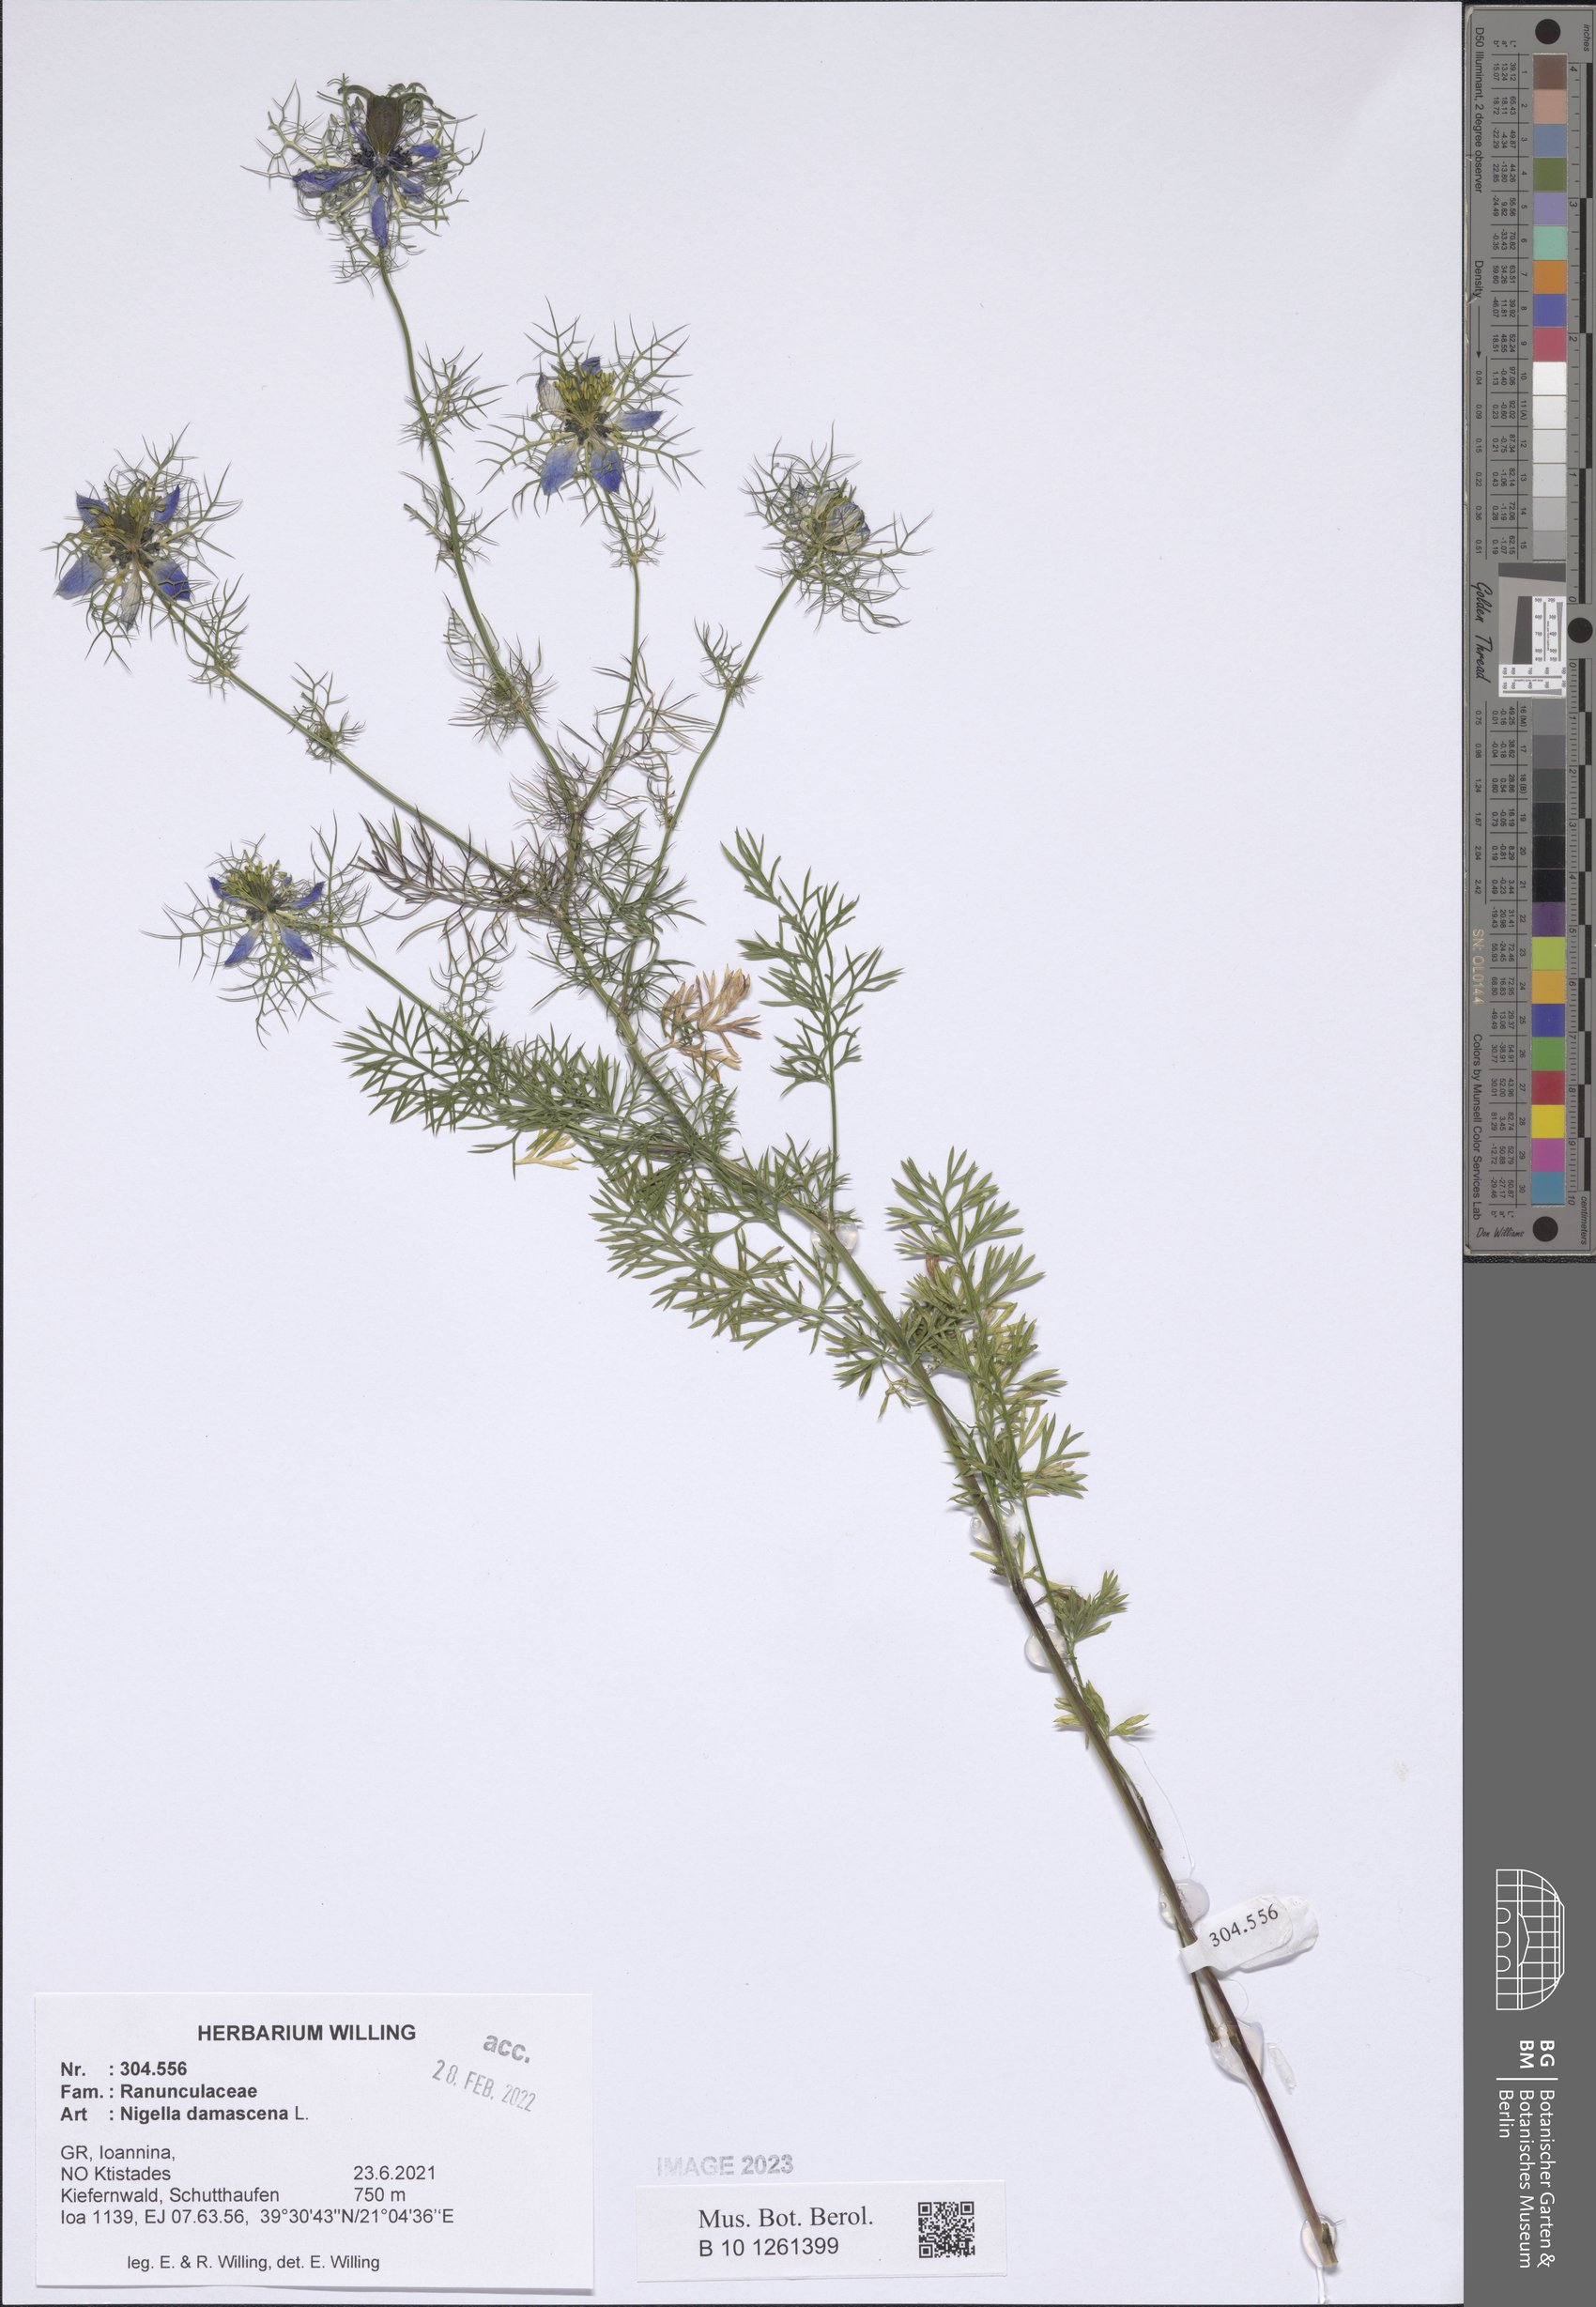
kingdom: Plantae
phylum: Tracheophyta
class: Magnoliopsida
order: Ranunculales
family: Ranunculaceae
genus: Nigella
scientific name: Nigella damascena
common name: Love-in-a-mist
